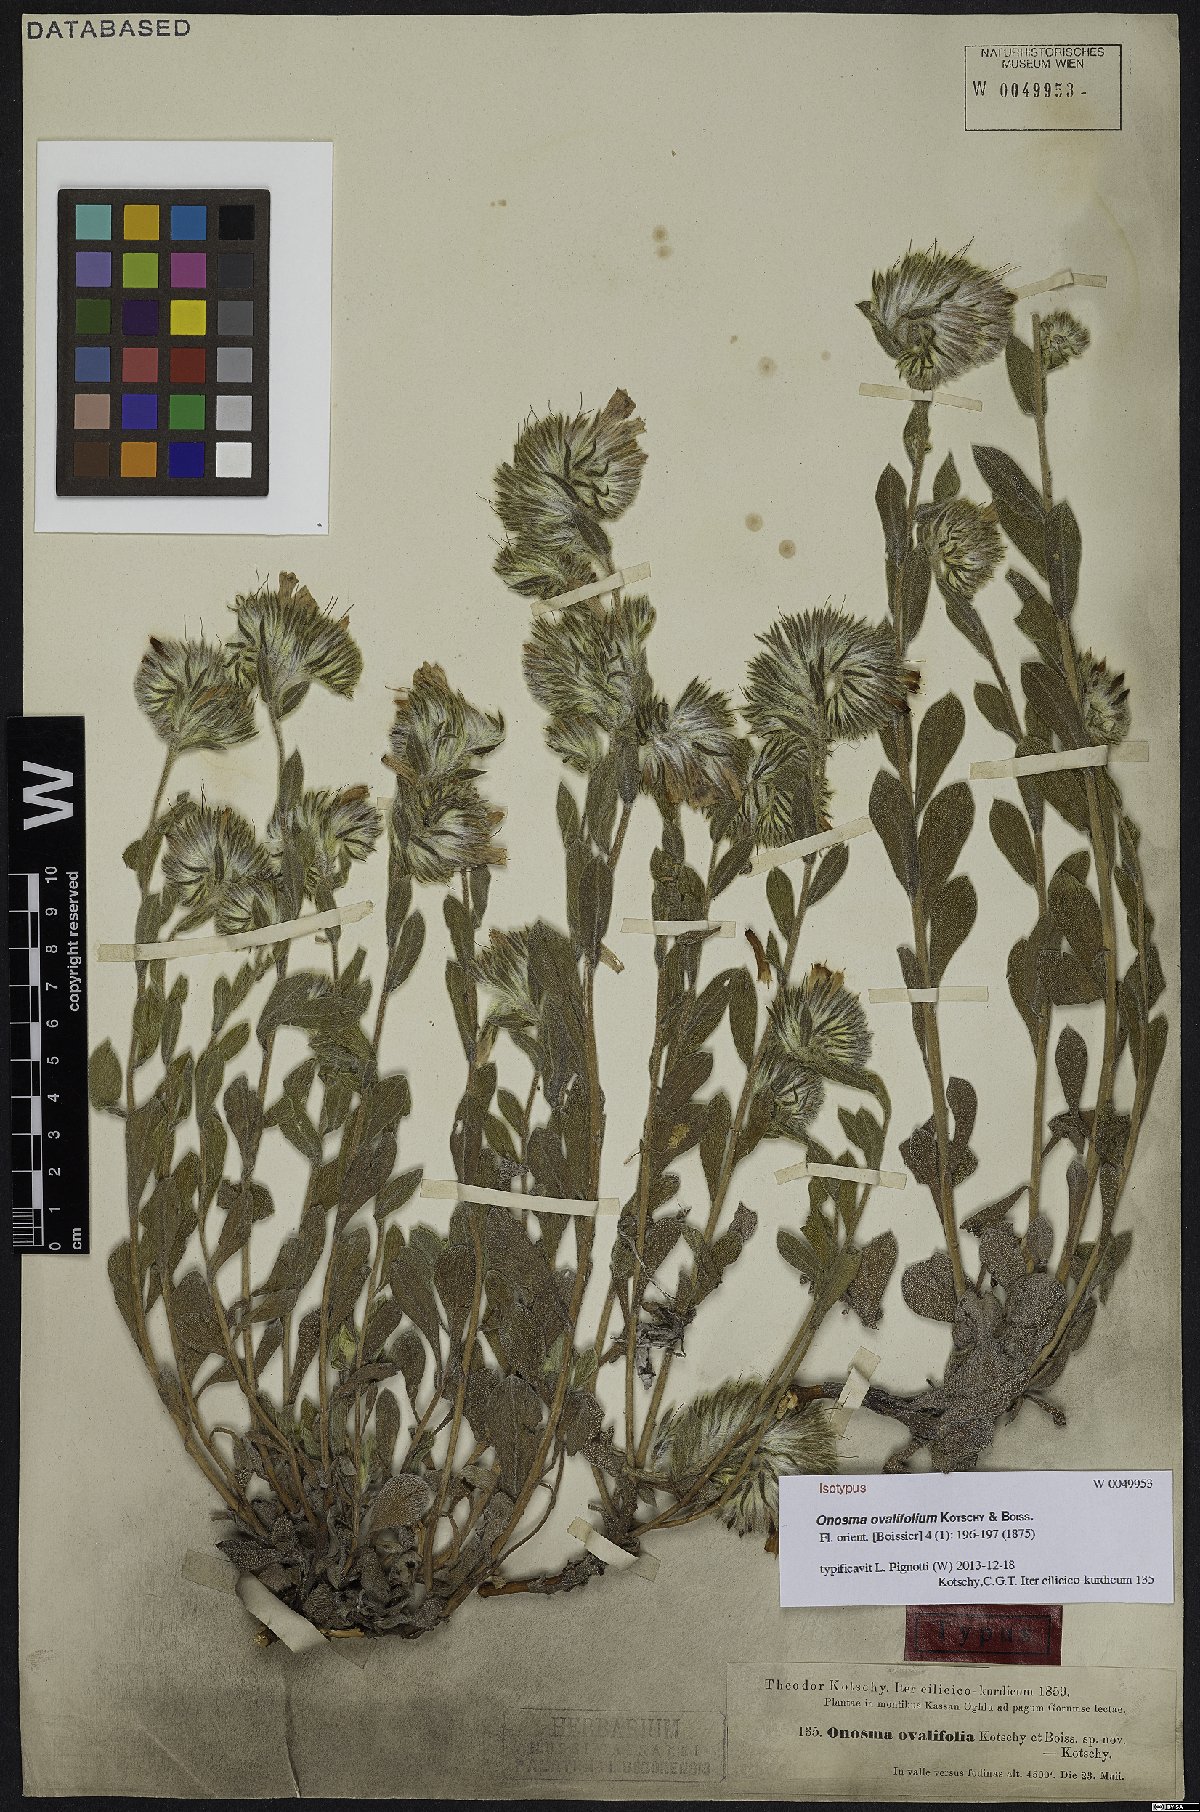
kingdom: Plantae
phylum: Tracheophyta
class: Magnoliopsida
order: Boraginales
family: Boraginaceae
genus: Onosma
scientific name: Onosma ovalifolia
